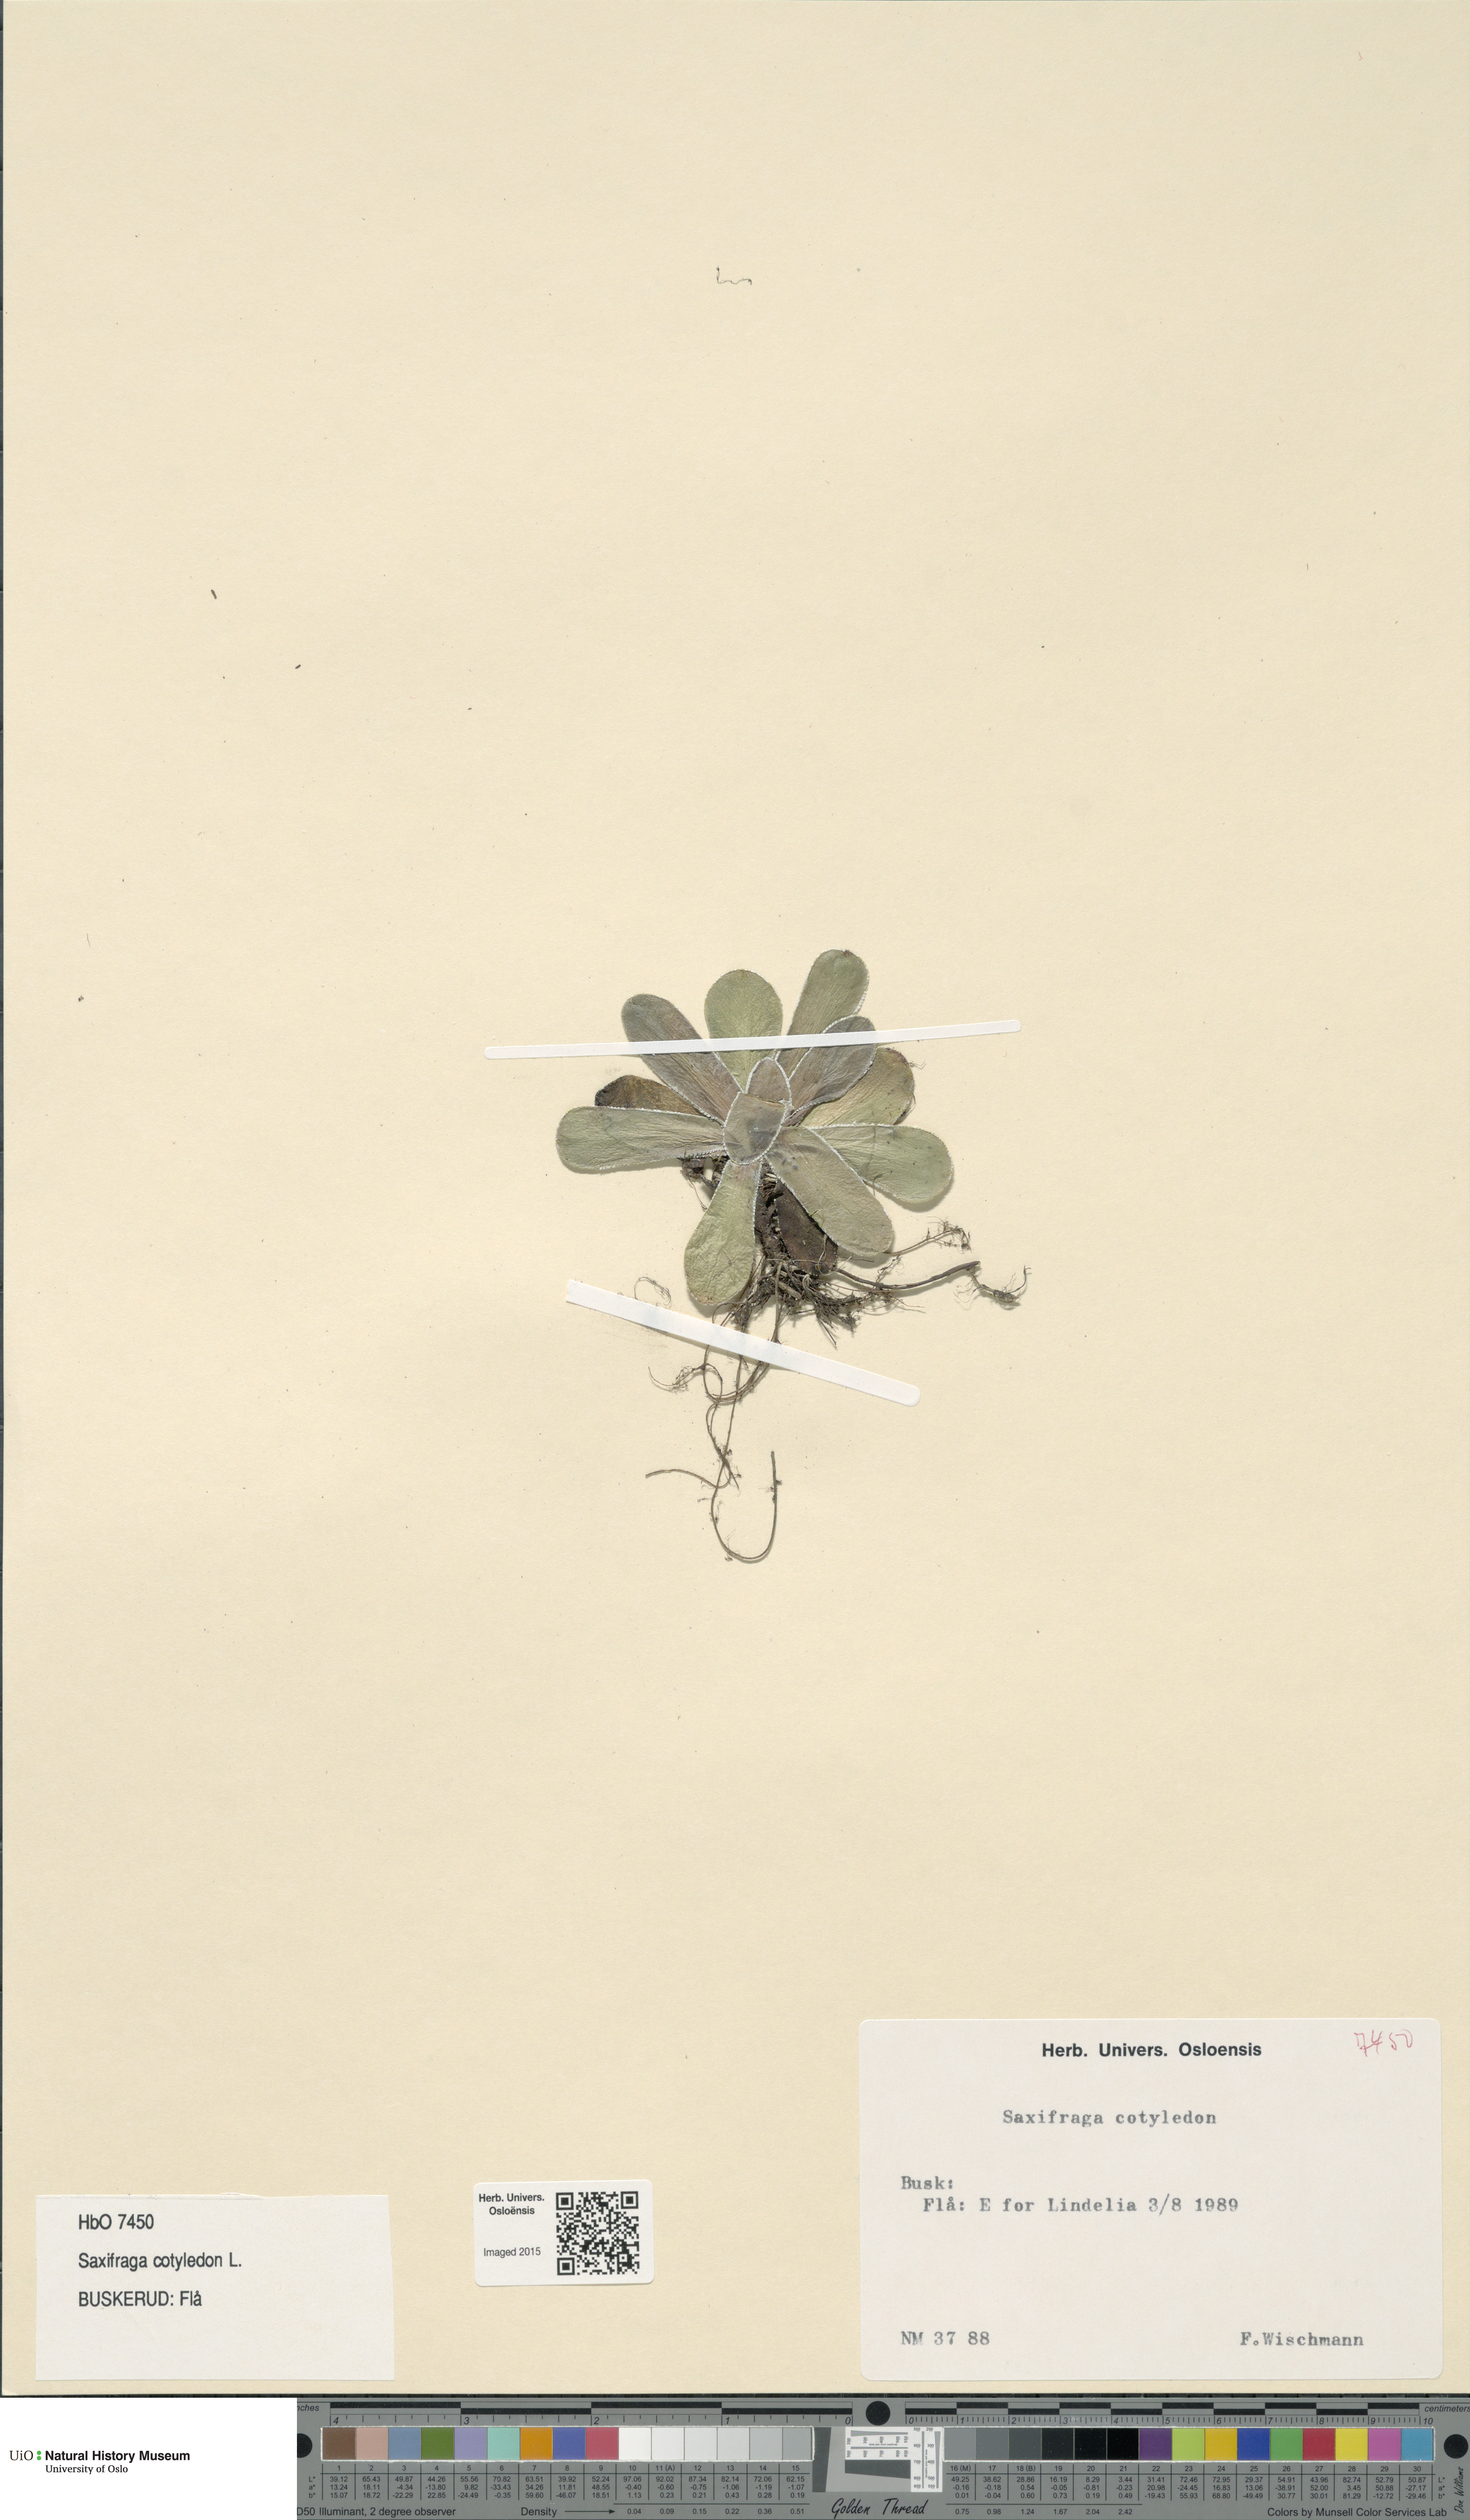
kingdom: Plantae
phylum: Tracheophyta
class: Magnoliopsida
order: Saxifragales
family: Saxifragaceae
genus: Saxifraga
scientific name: Saxifraga cotyledon
